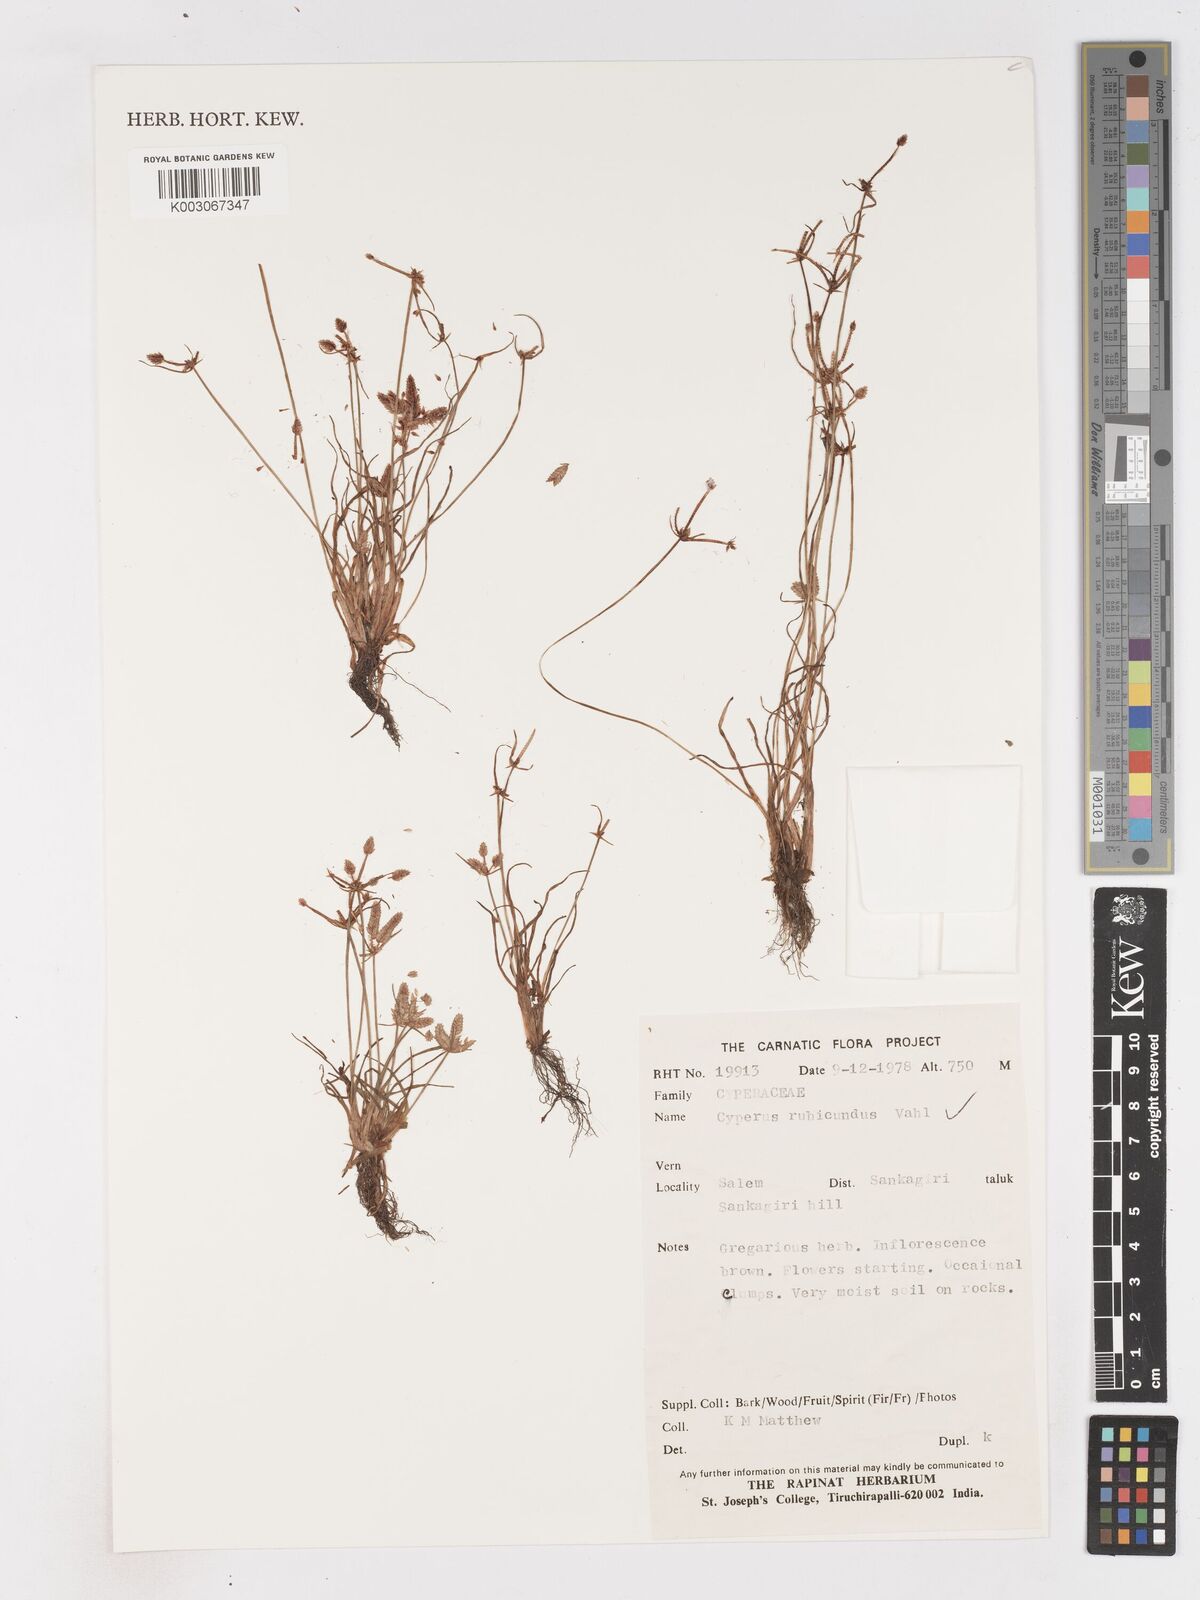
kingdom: Plantae
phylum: Tracheophyta
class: Liliopsida
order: Poales
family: Cyperaceae
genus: Cyperus
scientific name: Cyperus rubicundus
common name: Coco-grass
